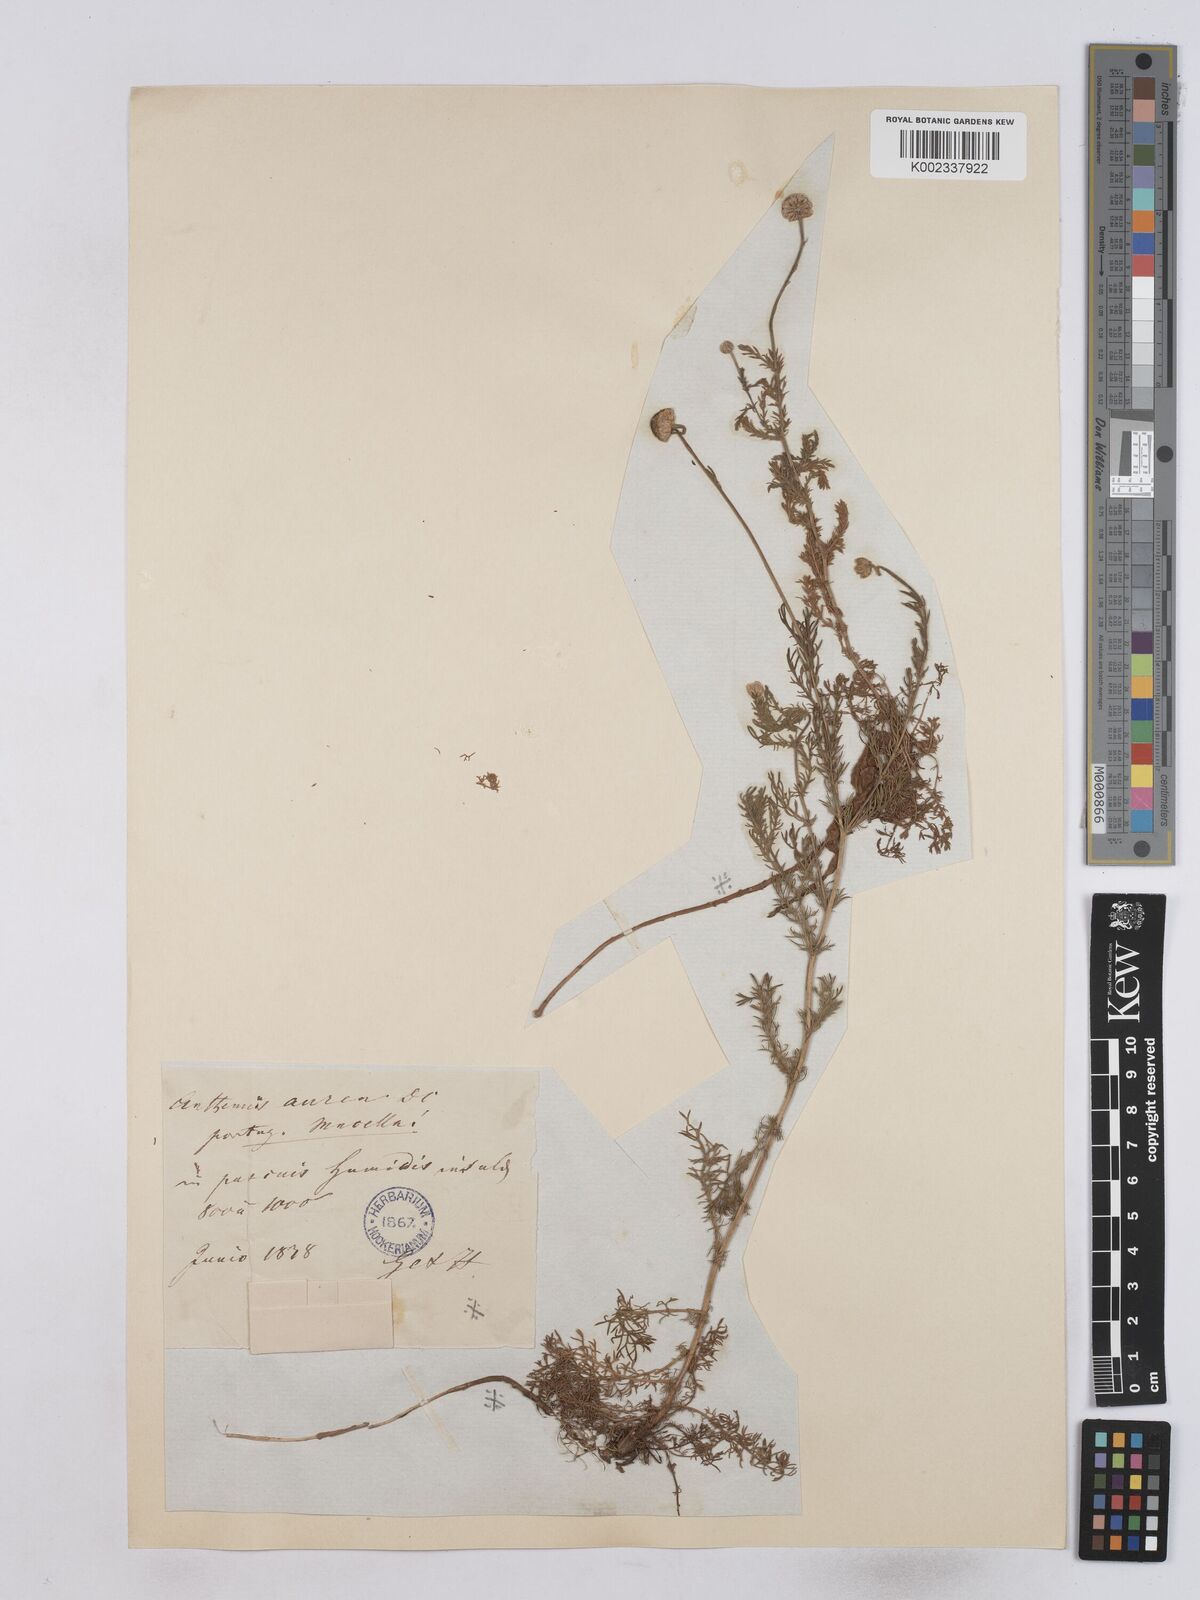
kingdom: Plantae
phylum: Tracheophyta
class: Magnoliopsida
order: Asterales
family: Asteraceae
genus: Matricaria
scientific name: Matricaria aurea
